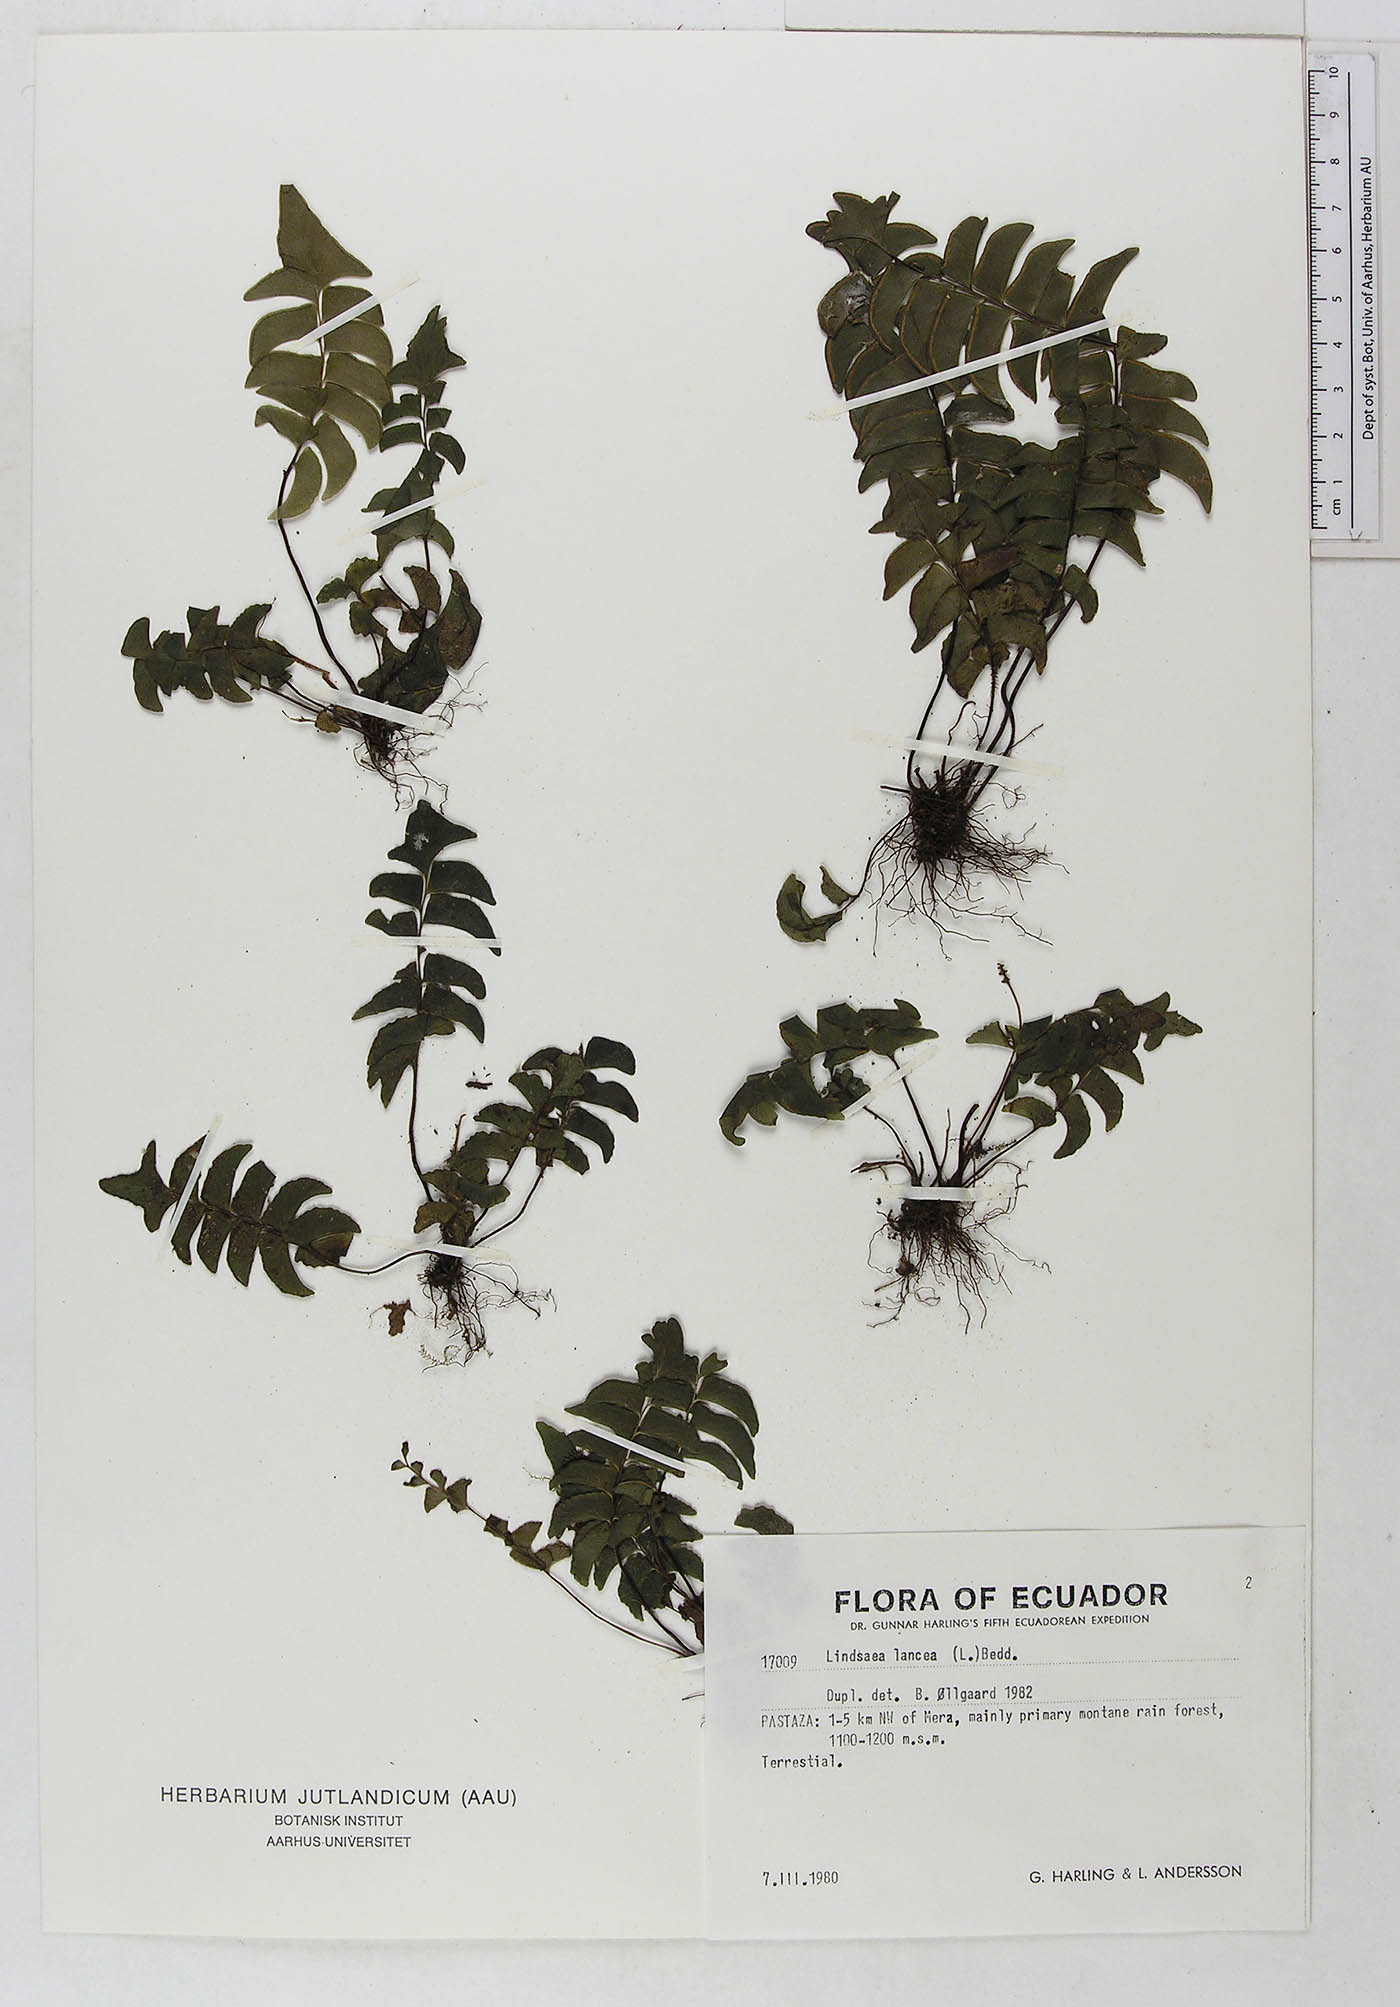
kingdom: Plantae
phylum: Tracheophyta
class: Polypodiopsida
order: Polypodiales
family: Dennstaedtiaceae
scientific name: Dennstaedtiaceae
